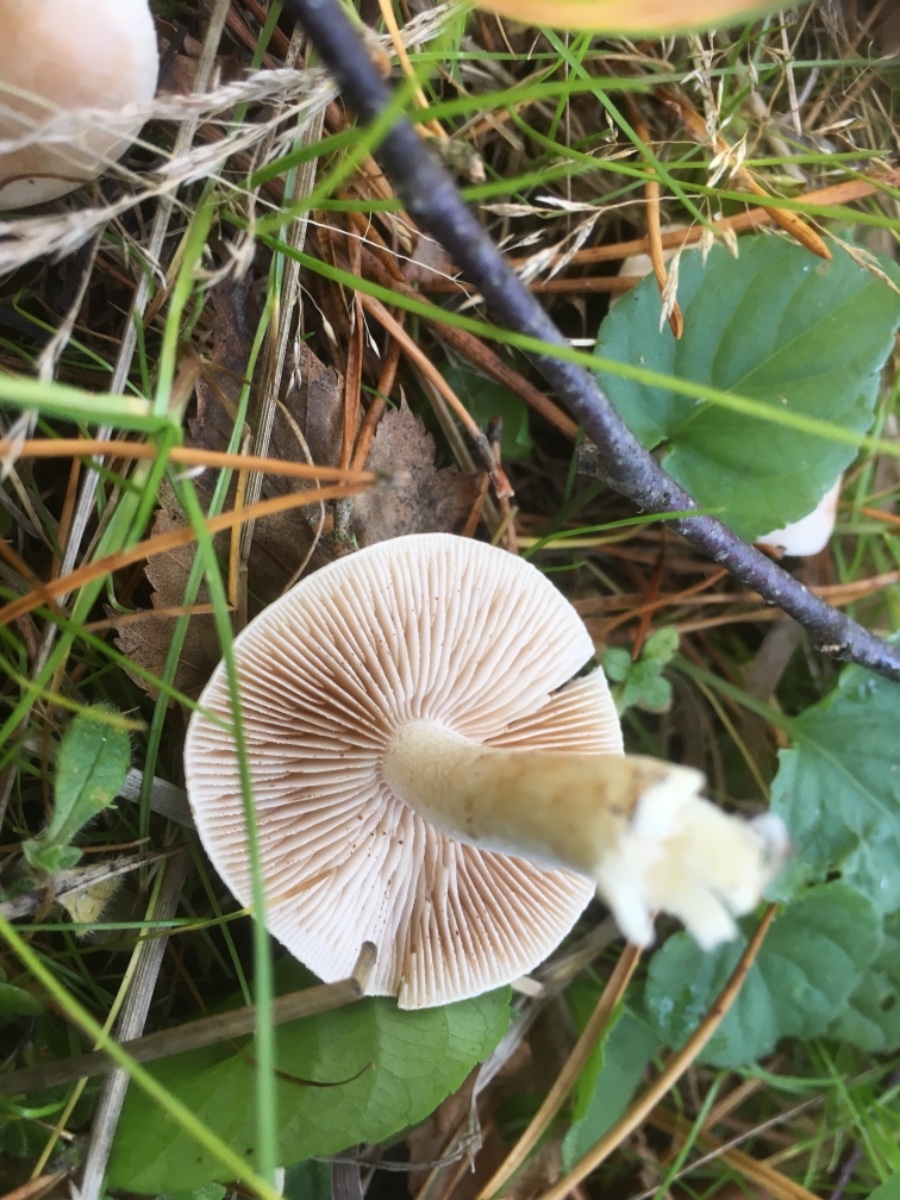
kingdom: Fungi
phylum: Basidiomycota
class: Agaricomycetes
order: Agaricales
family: Hymenogastraceae
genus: Hebeloma
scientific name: Hebeloma
